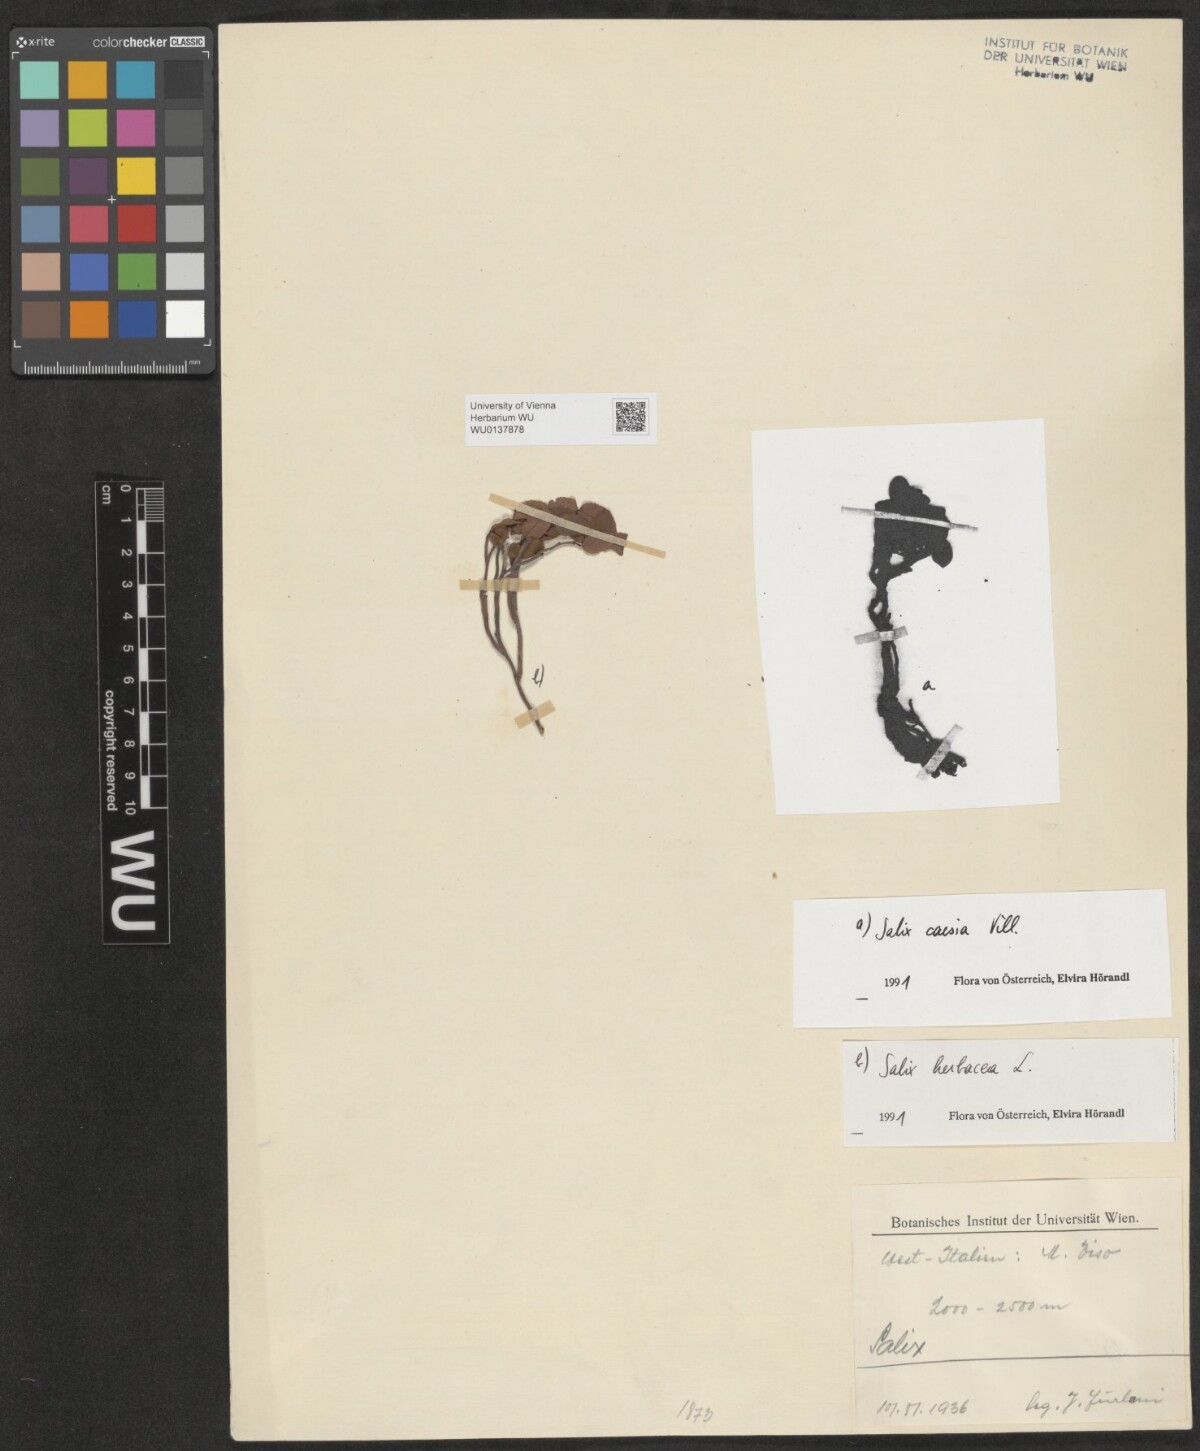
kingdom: Plantae
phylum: Tracheophyta
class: Magnoliopsida
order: Malpighiales
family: Salicaceae
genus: Salix
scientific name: Salix herbacea
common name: Dwarf willow
